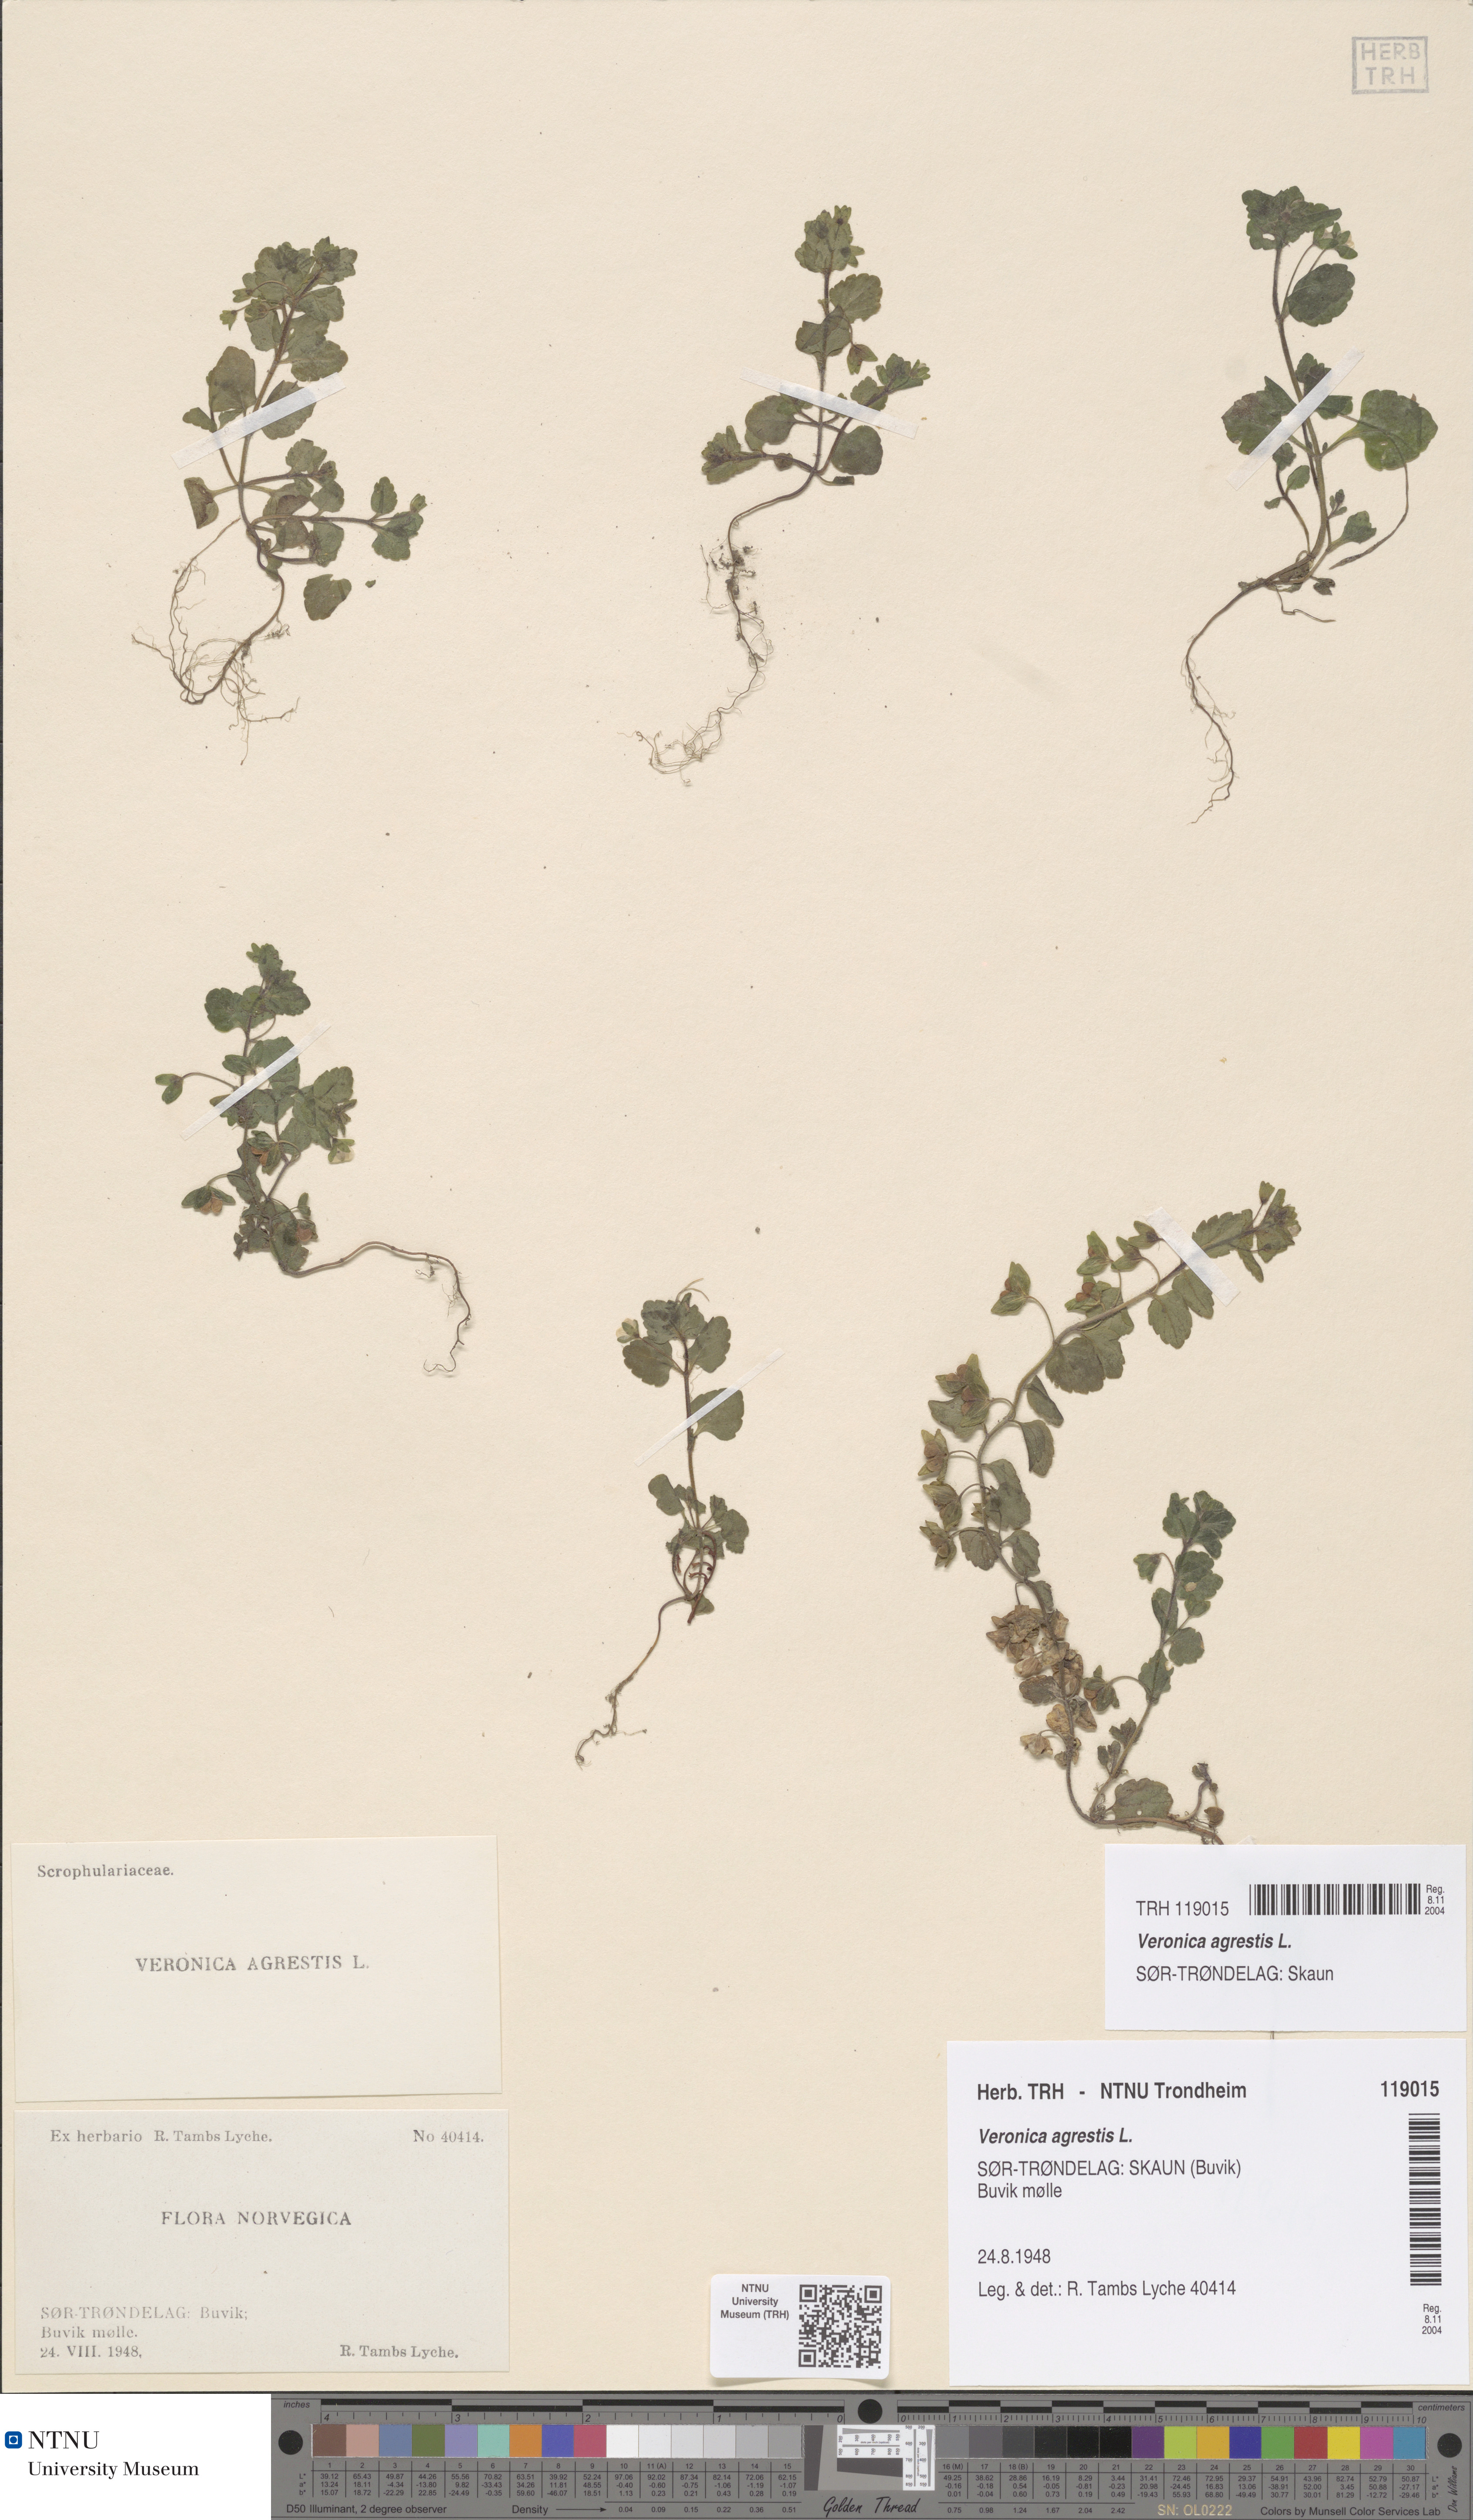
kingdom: Plantae
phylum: Tracheophyta
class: Magnoliopsida
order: Lamiales
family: Plantaginaceae
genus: Veronica
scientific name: Veronica agrestis
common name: Green field-speedwell
